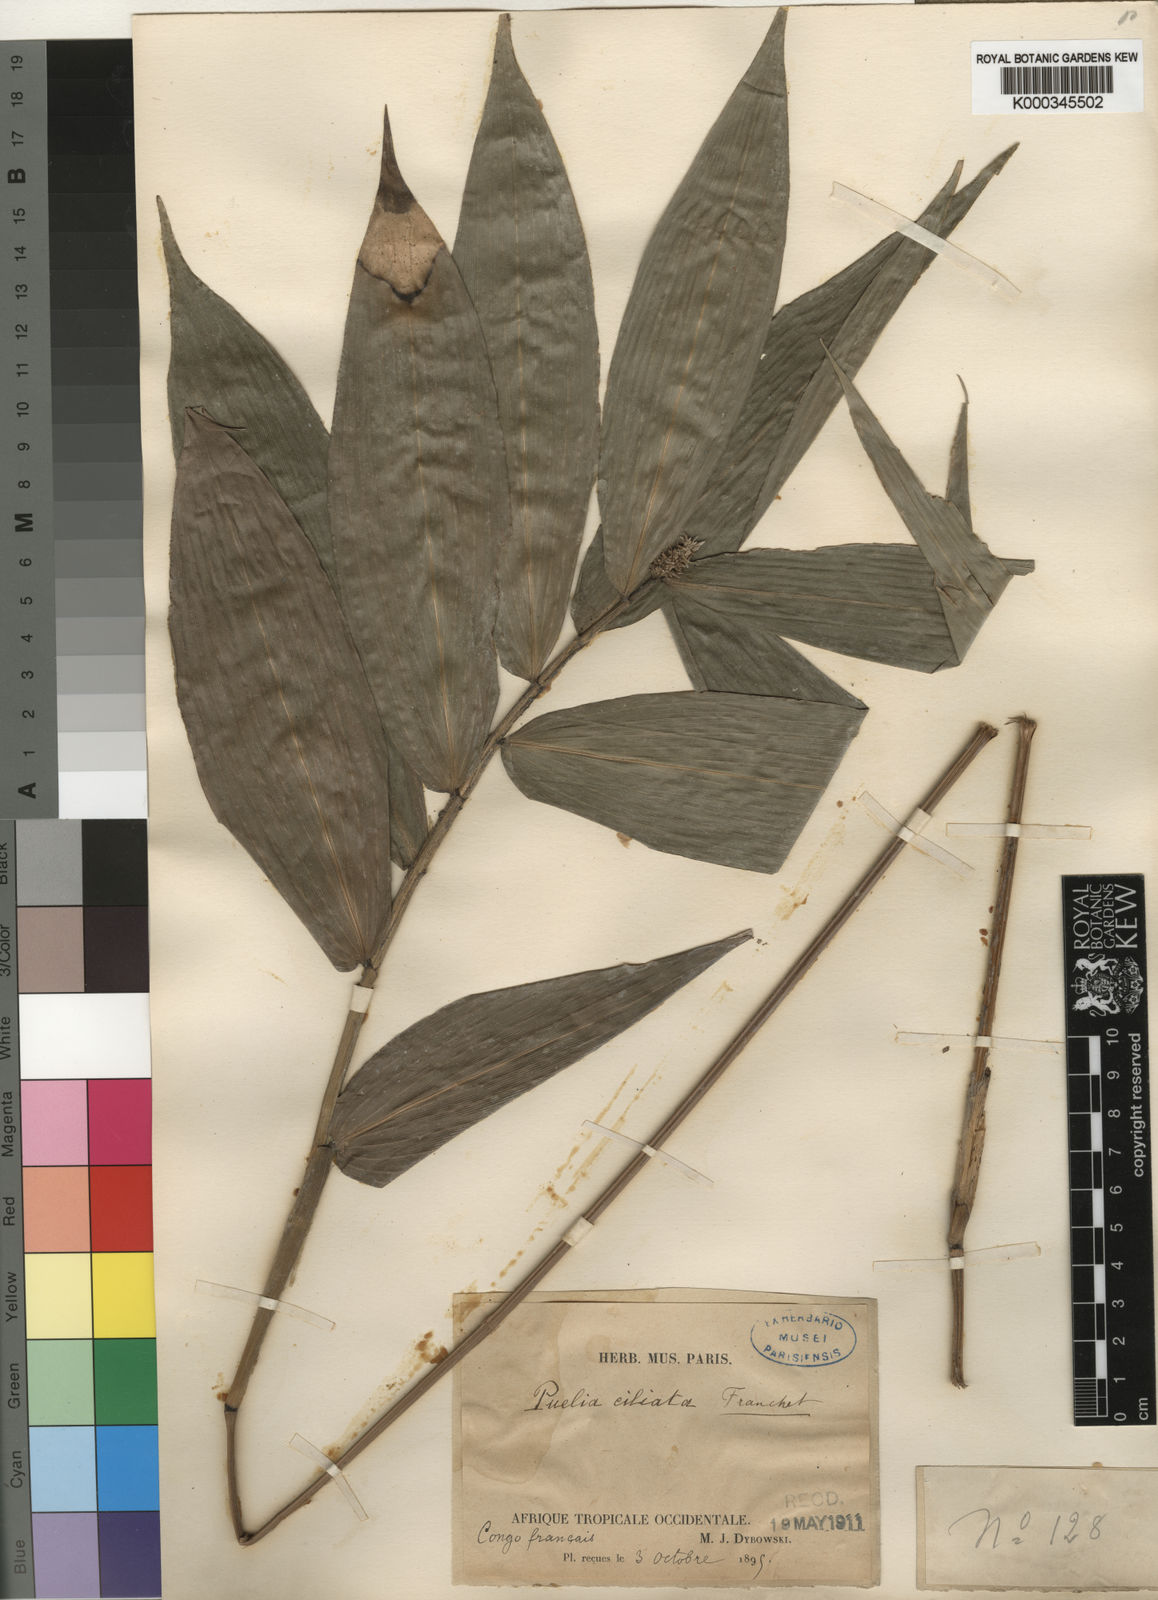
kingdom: Plantae
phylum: Tracheophyta
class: Liliopsida
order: Poales
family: Poaceae
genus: Puelia
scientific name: Puelia ciliata
